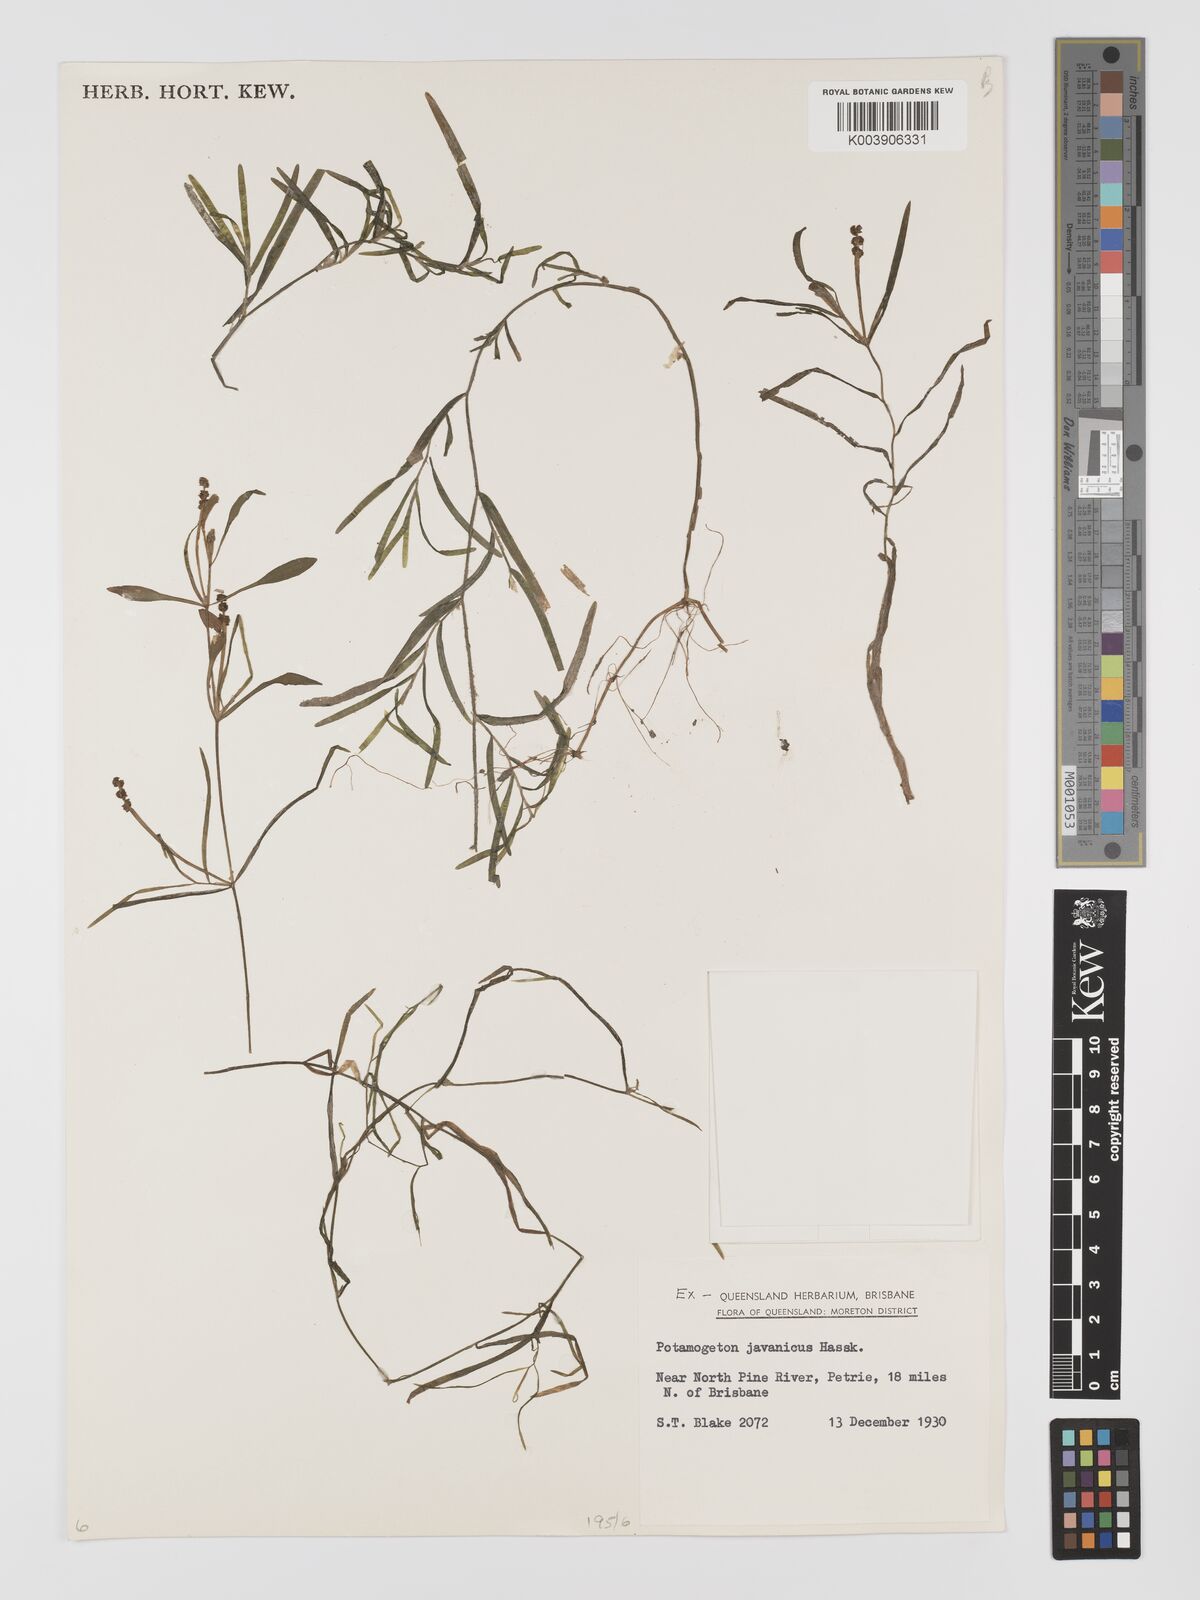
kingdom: Plantae
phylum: Tracheophyta
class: Liliopsida
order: Alismatales
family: Potamogetonaceae
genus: Potamogeton
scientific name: Potamogeton ochreatus
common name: Blunt pondweed
